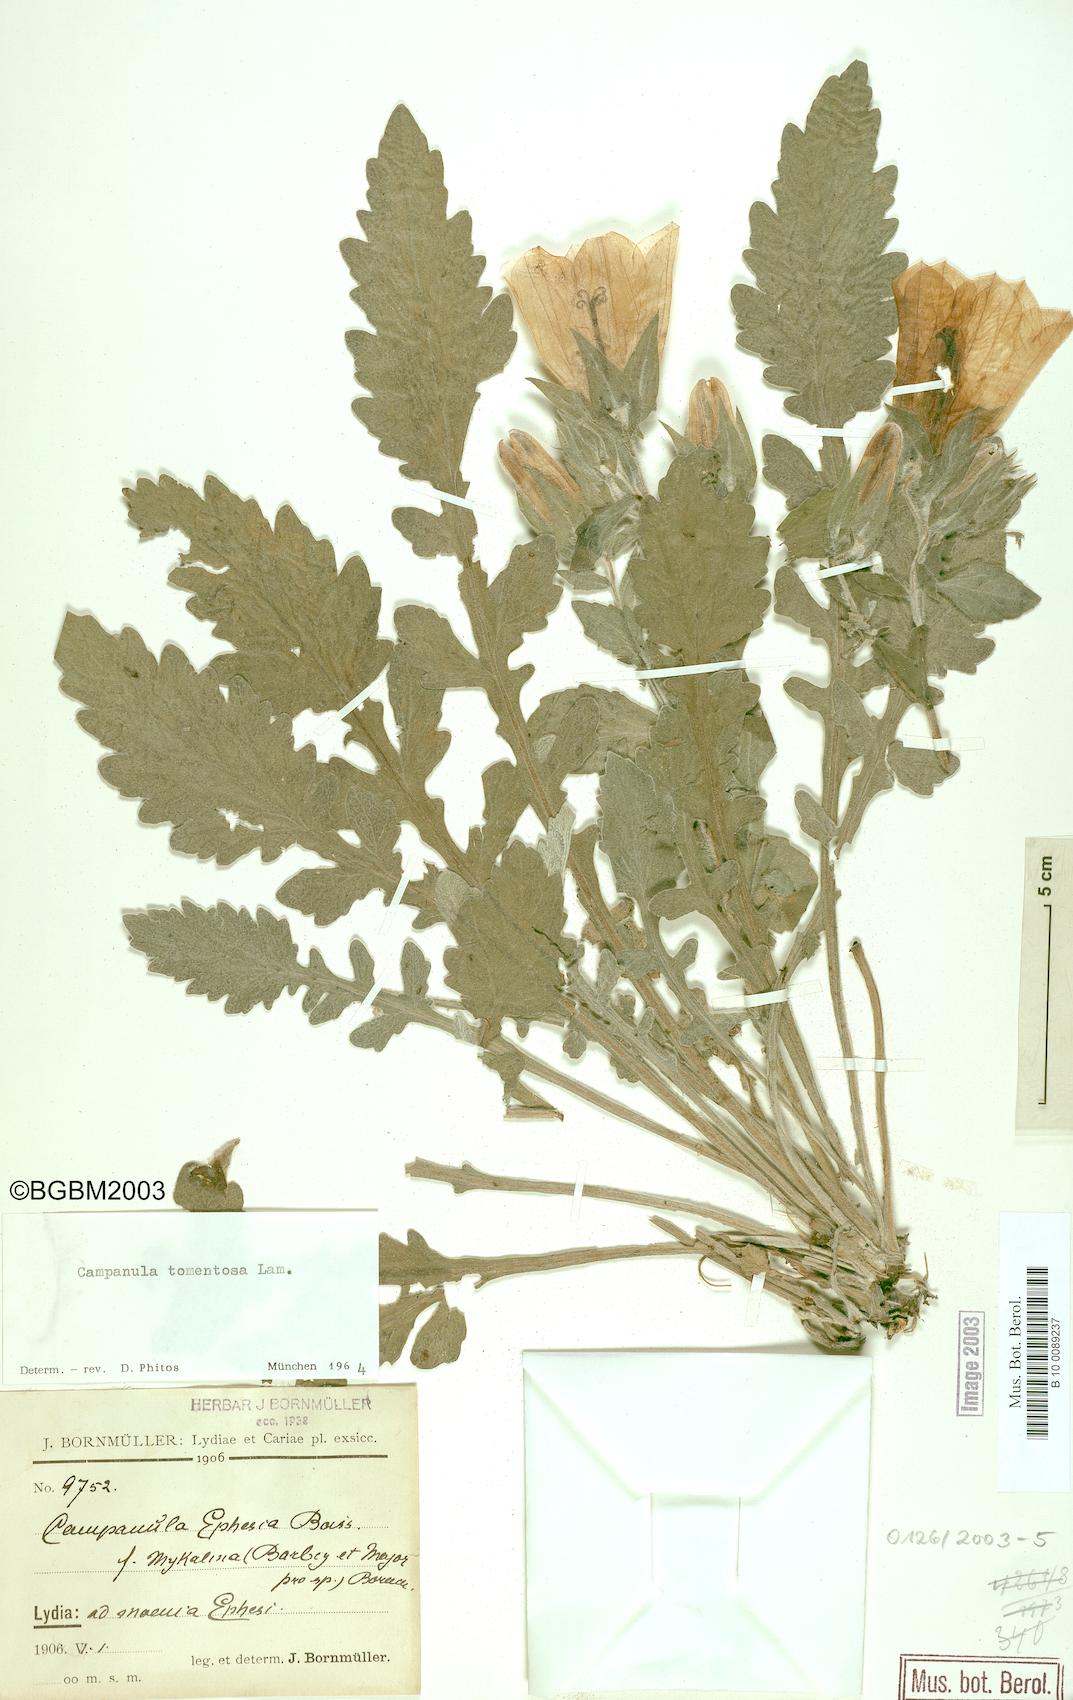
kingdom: Plantae
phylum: Tracheophyta
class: Magnoliopsida
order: Asterales
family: Campanulaceae
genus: Campanula
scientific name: Campanula tomentosa
